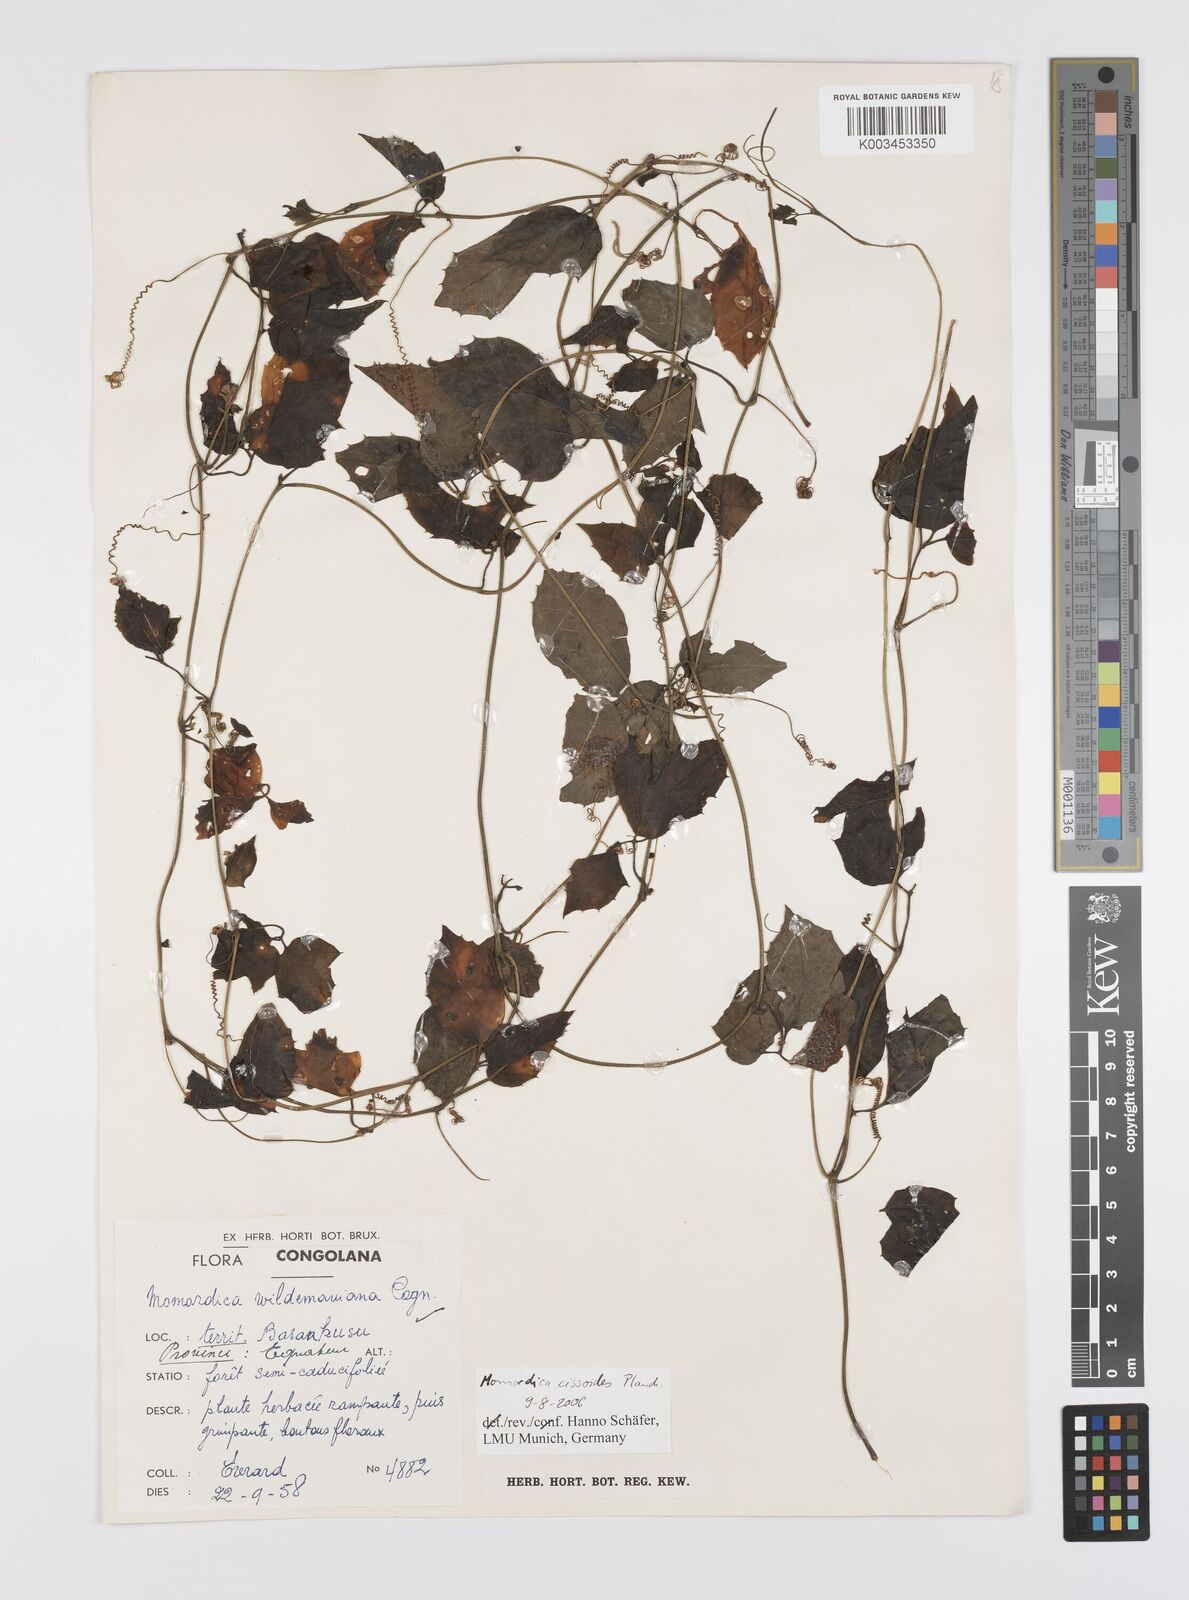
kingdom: Plantae
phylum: Tracheophyta
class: Magnoliopsida
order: Cucurbitales
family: Cucurbitaceae
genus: Momordica
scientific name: Momordica cissoides
